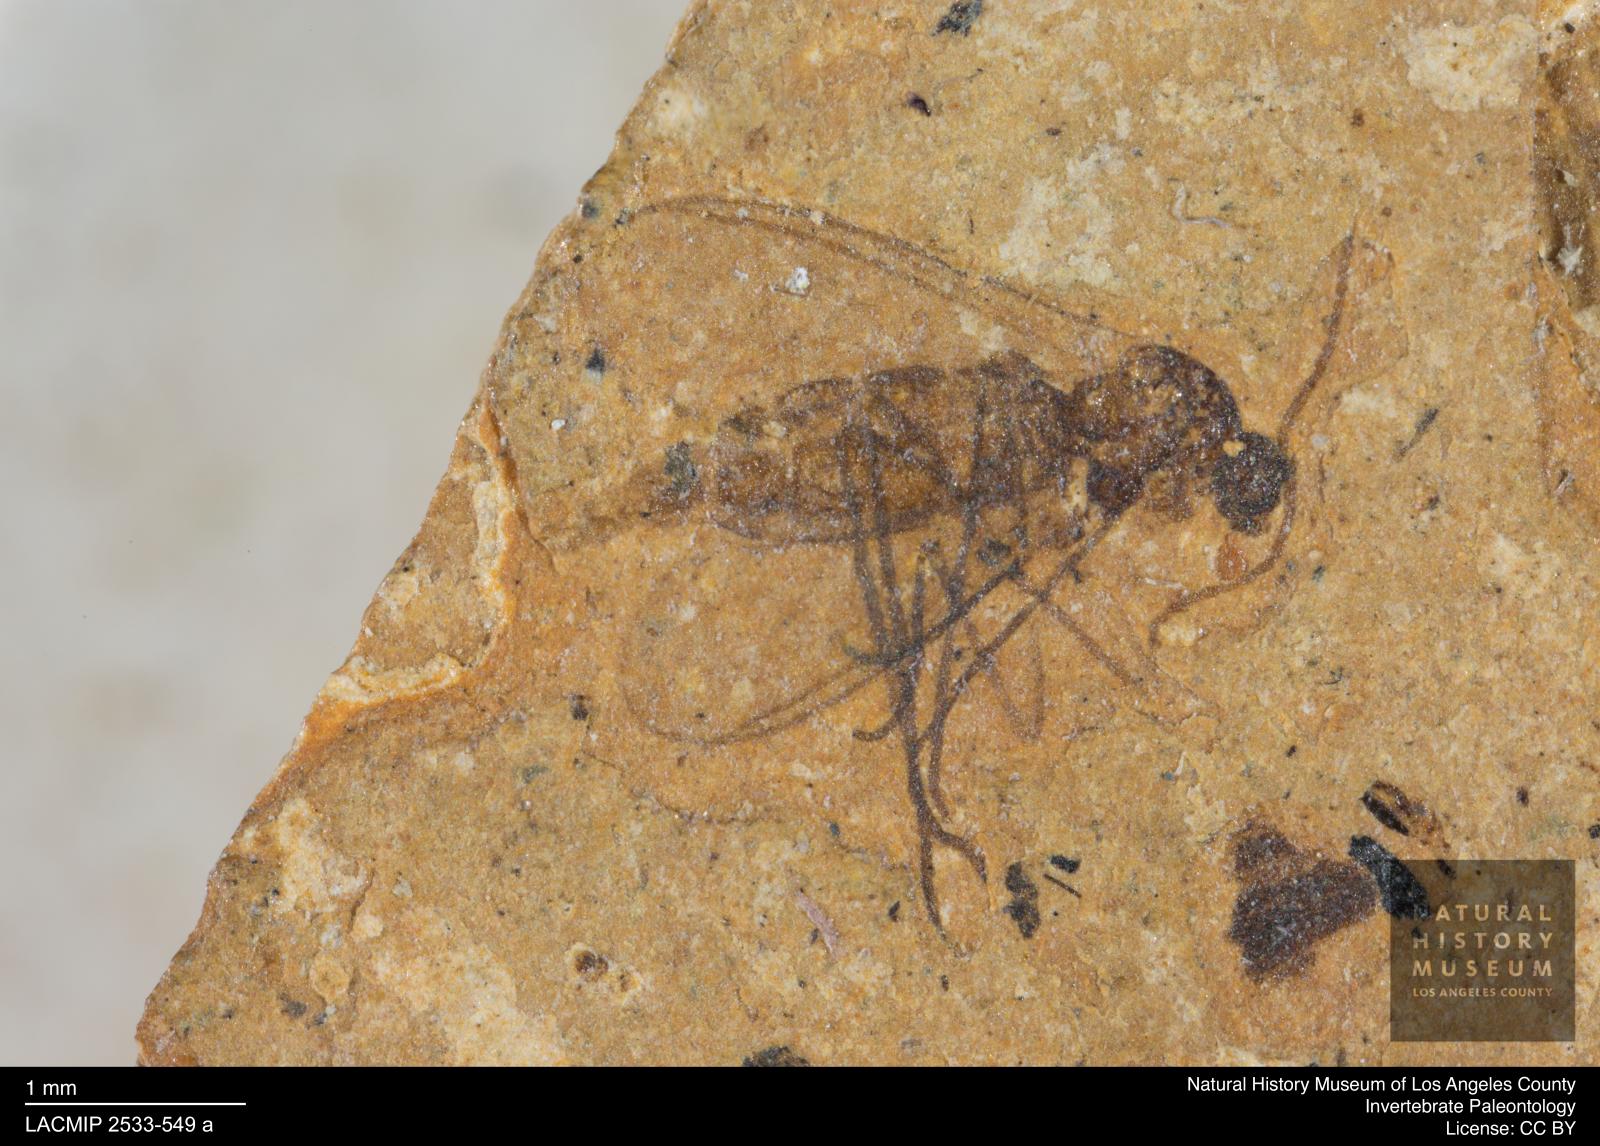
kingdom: Animalia
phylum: Arthropoda
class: Insecta
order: Diptera
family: Sciaridae
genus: Sciara
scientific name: Sciara antennaria
